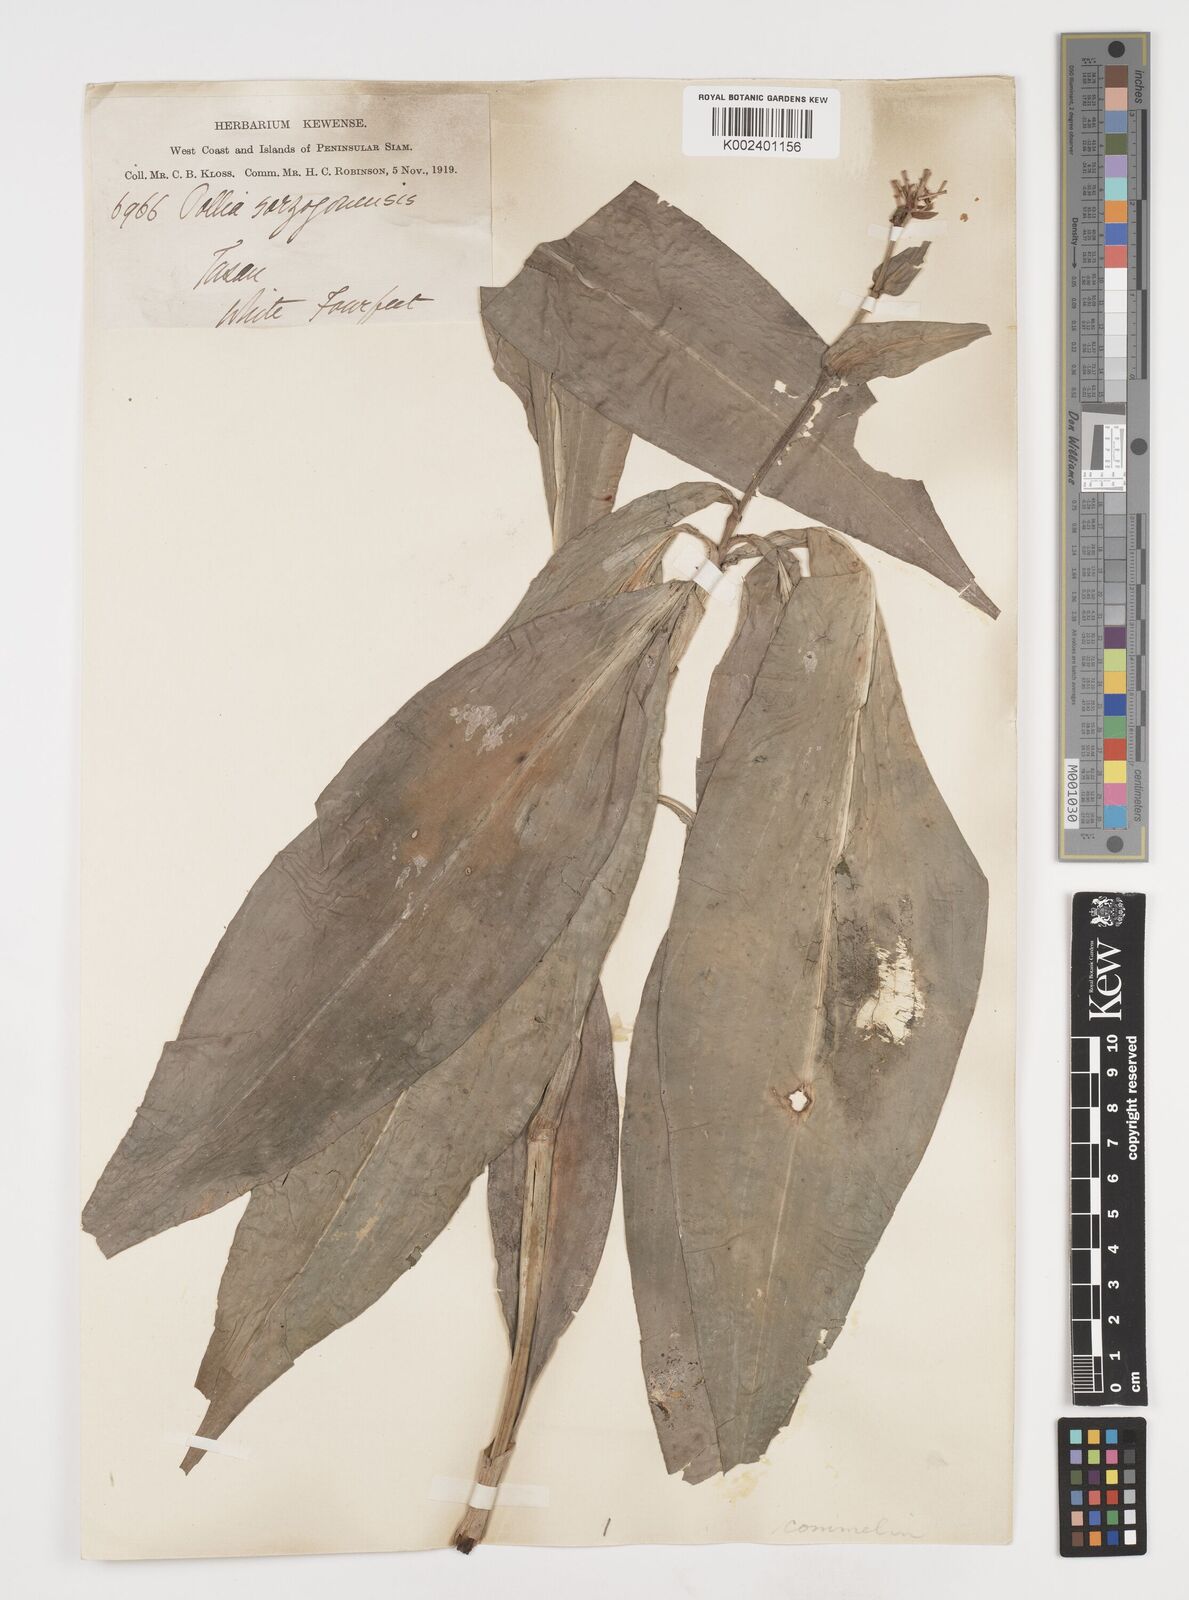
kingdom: Plantae
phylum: Tracheophyta
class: Liliopsida
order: Commelinales
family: Commelinaceae
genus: Pollia
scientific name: Pollia secundiflora
